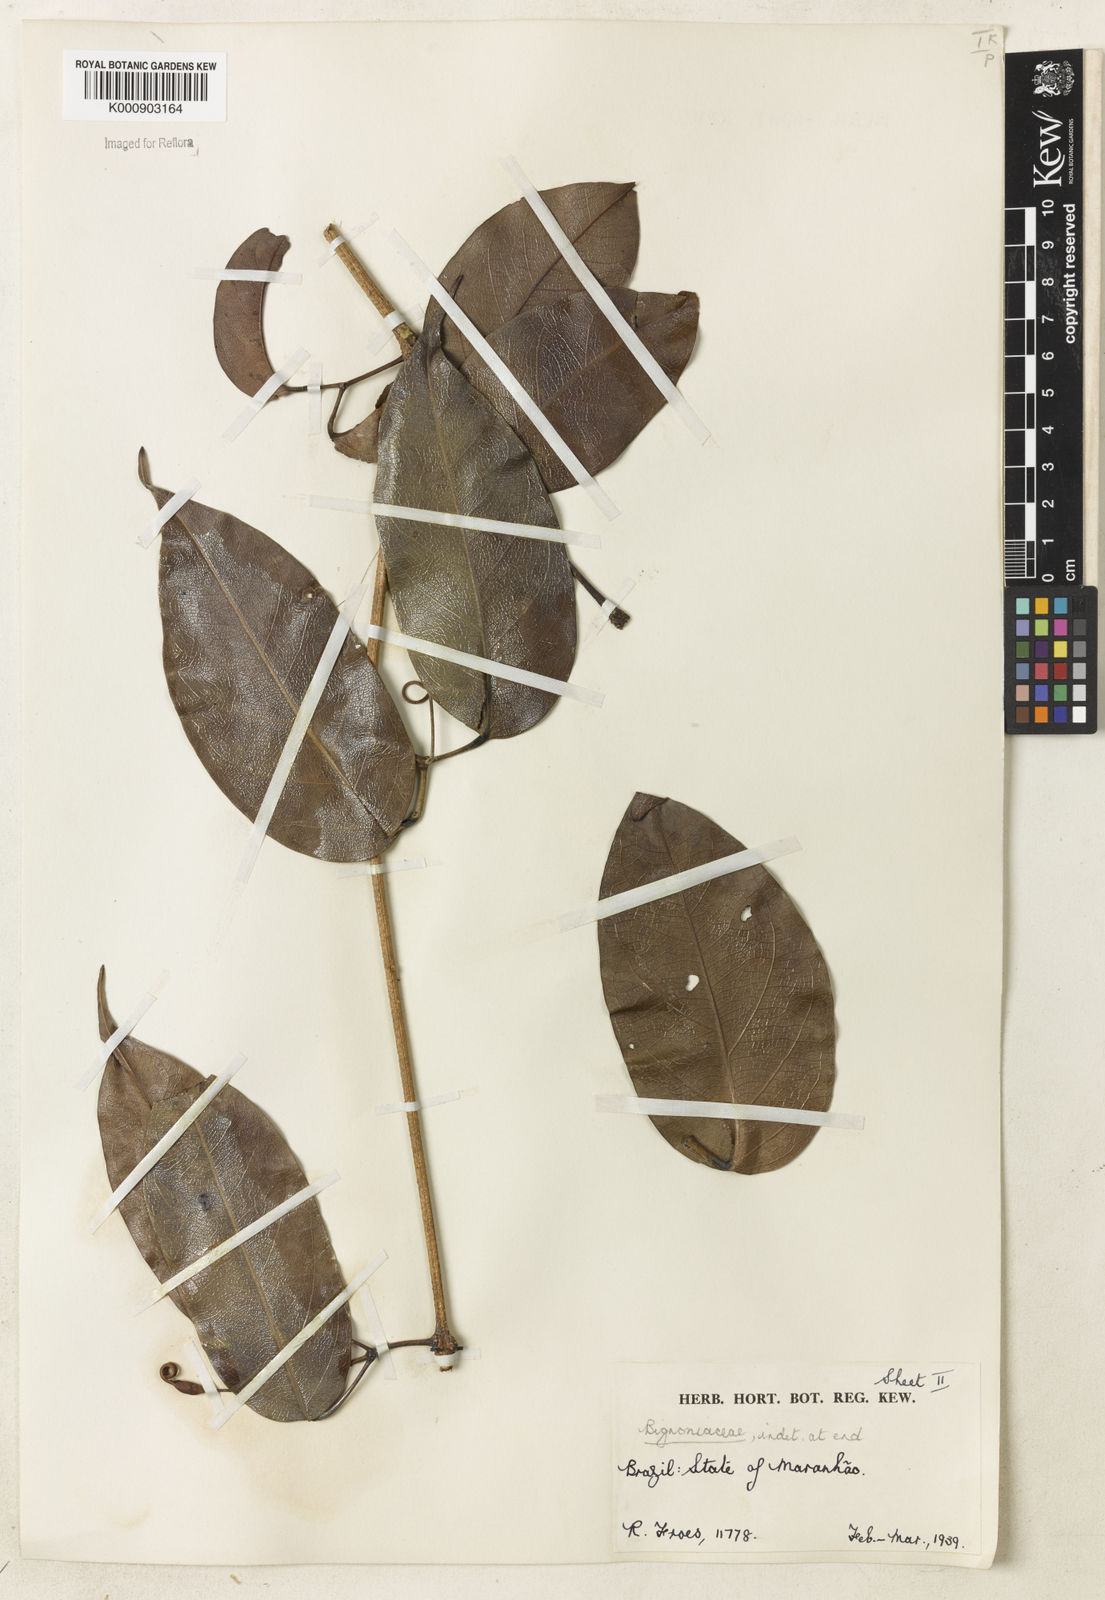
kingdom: Plantae
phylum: Tracheophyta
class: Magnoliopsida
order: Lamiales
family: Bignoniaceae
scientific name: Bignoniaceae
